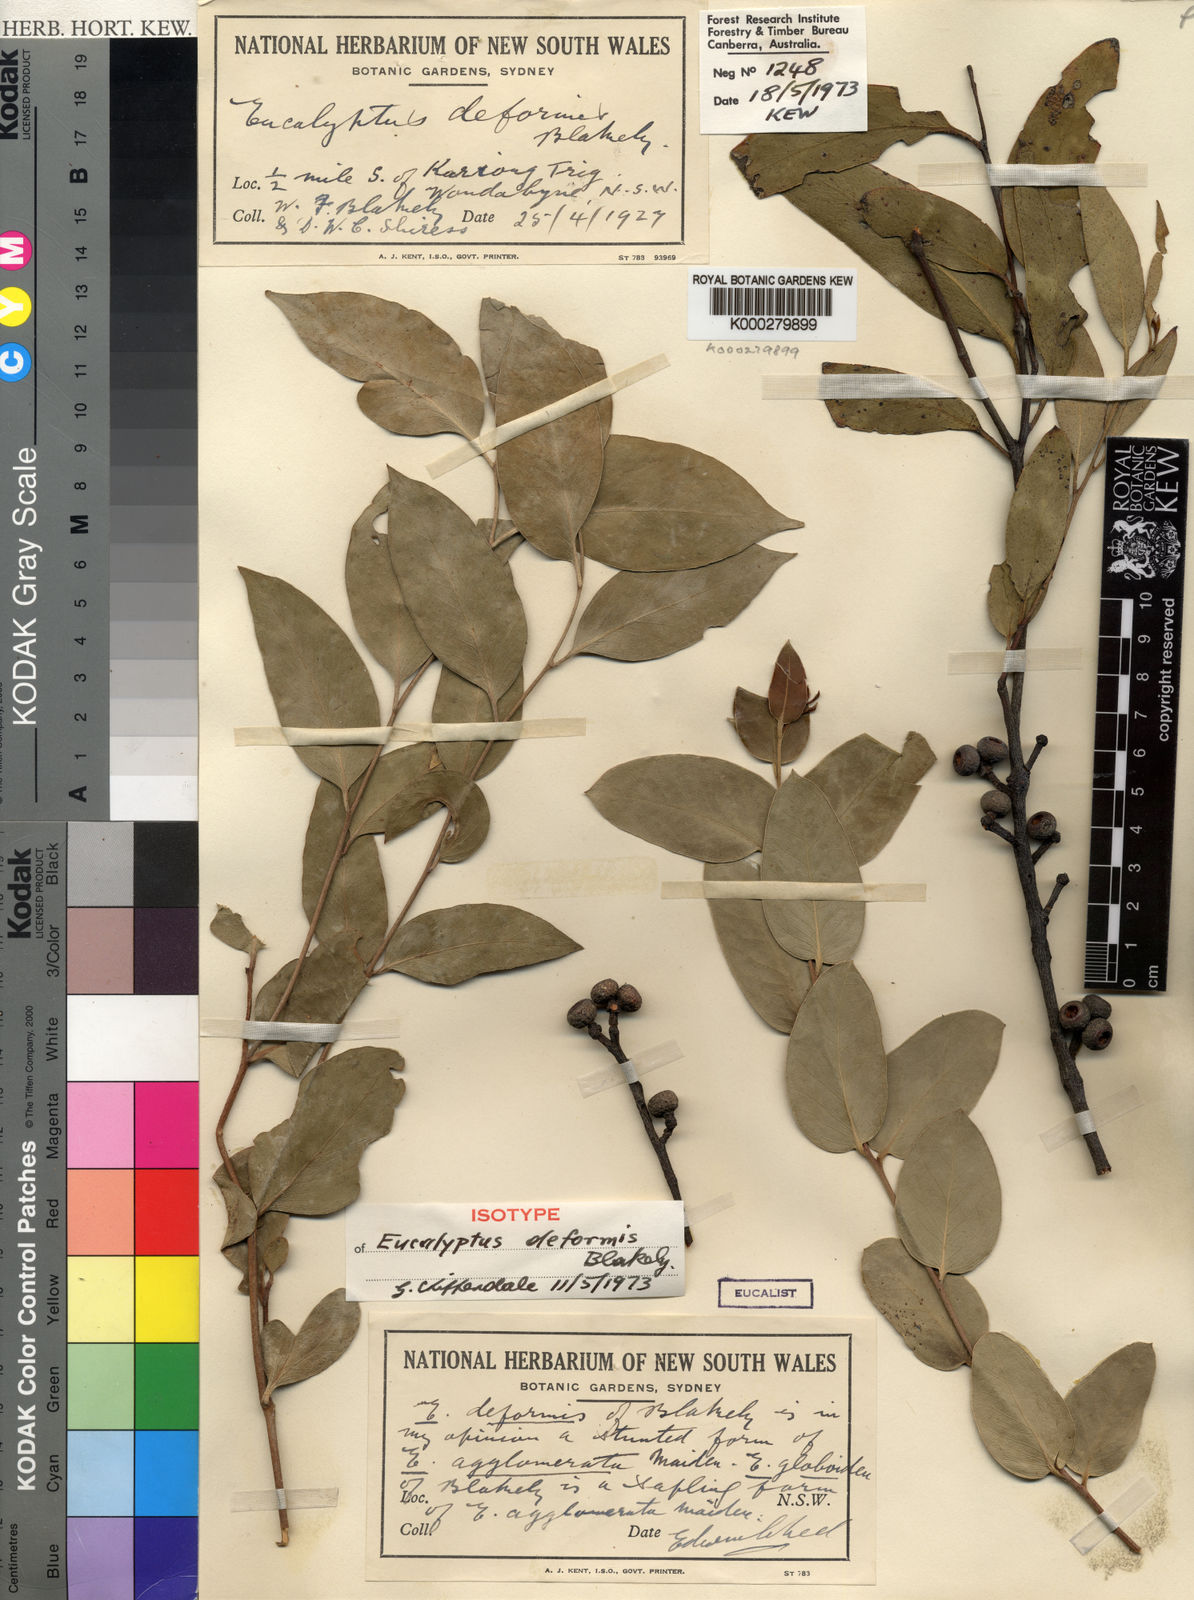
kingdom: Plantae
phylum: Tracheophyta
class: Magnoliopsida
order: Myrtales
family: Myrtaceae
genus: Eucalyptus
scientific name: Eucalyptus oblonga
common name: Narrow-leaf stringybark
